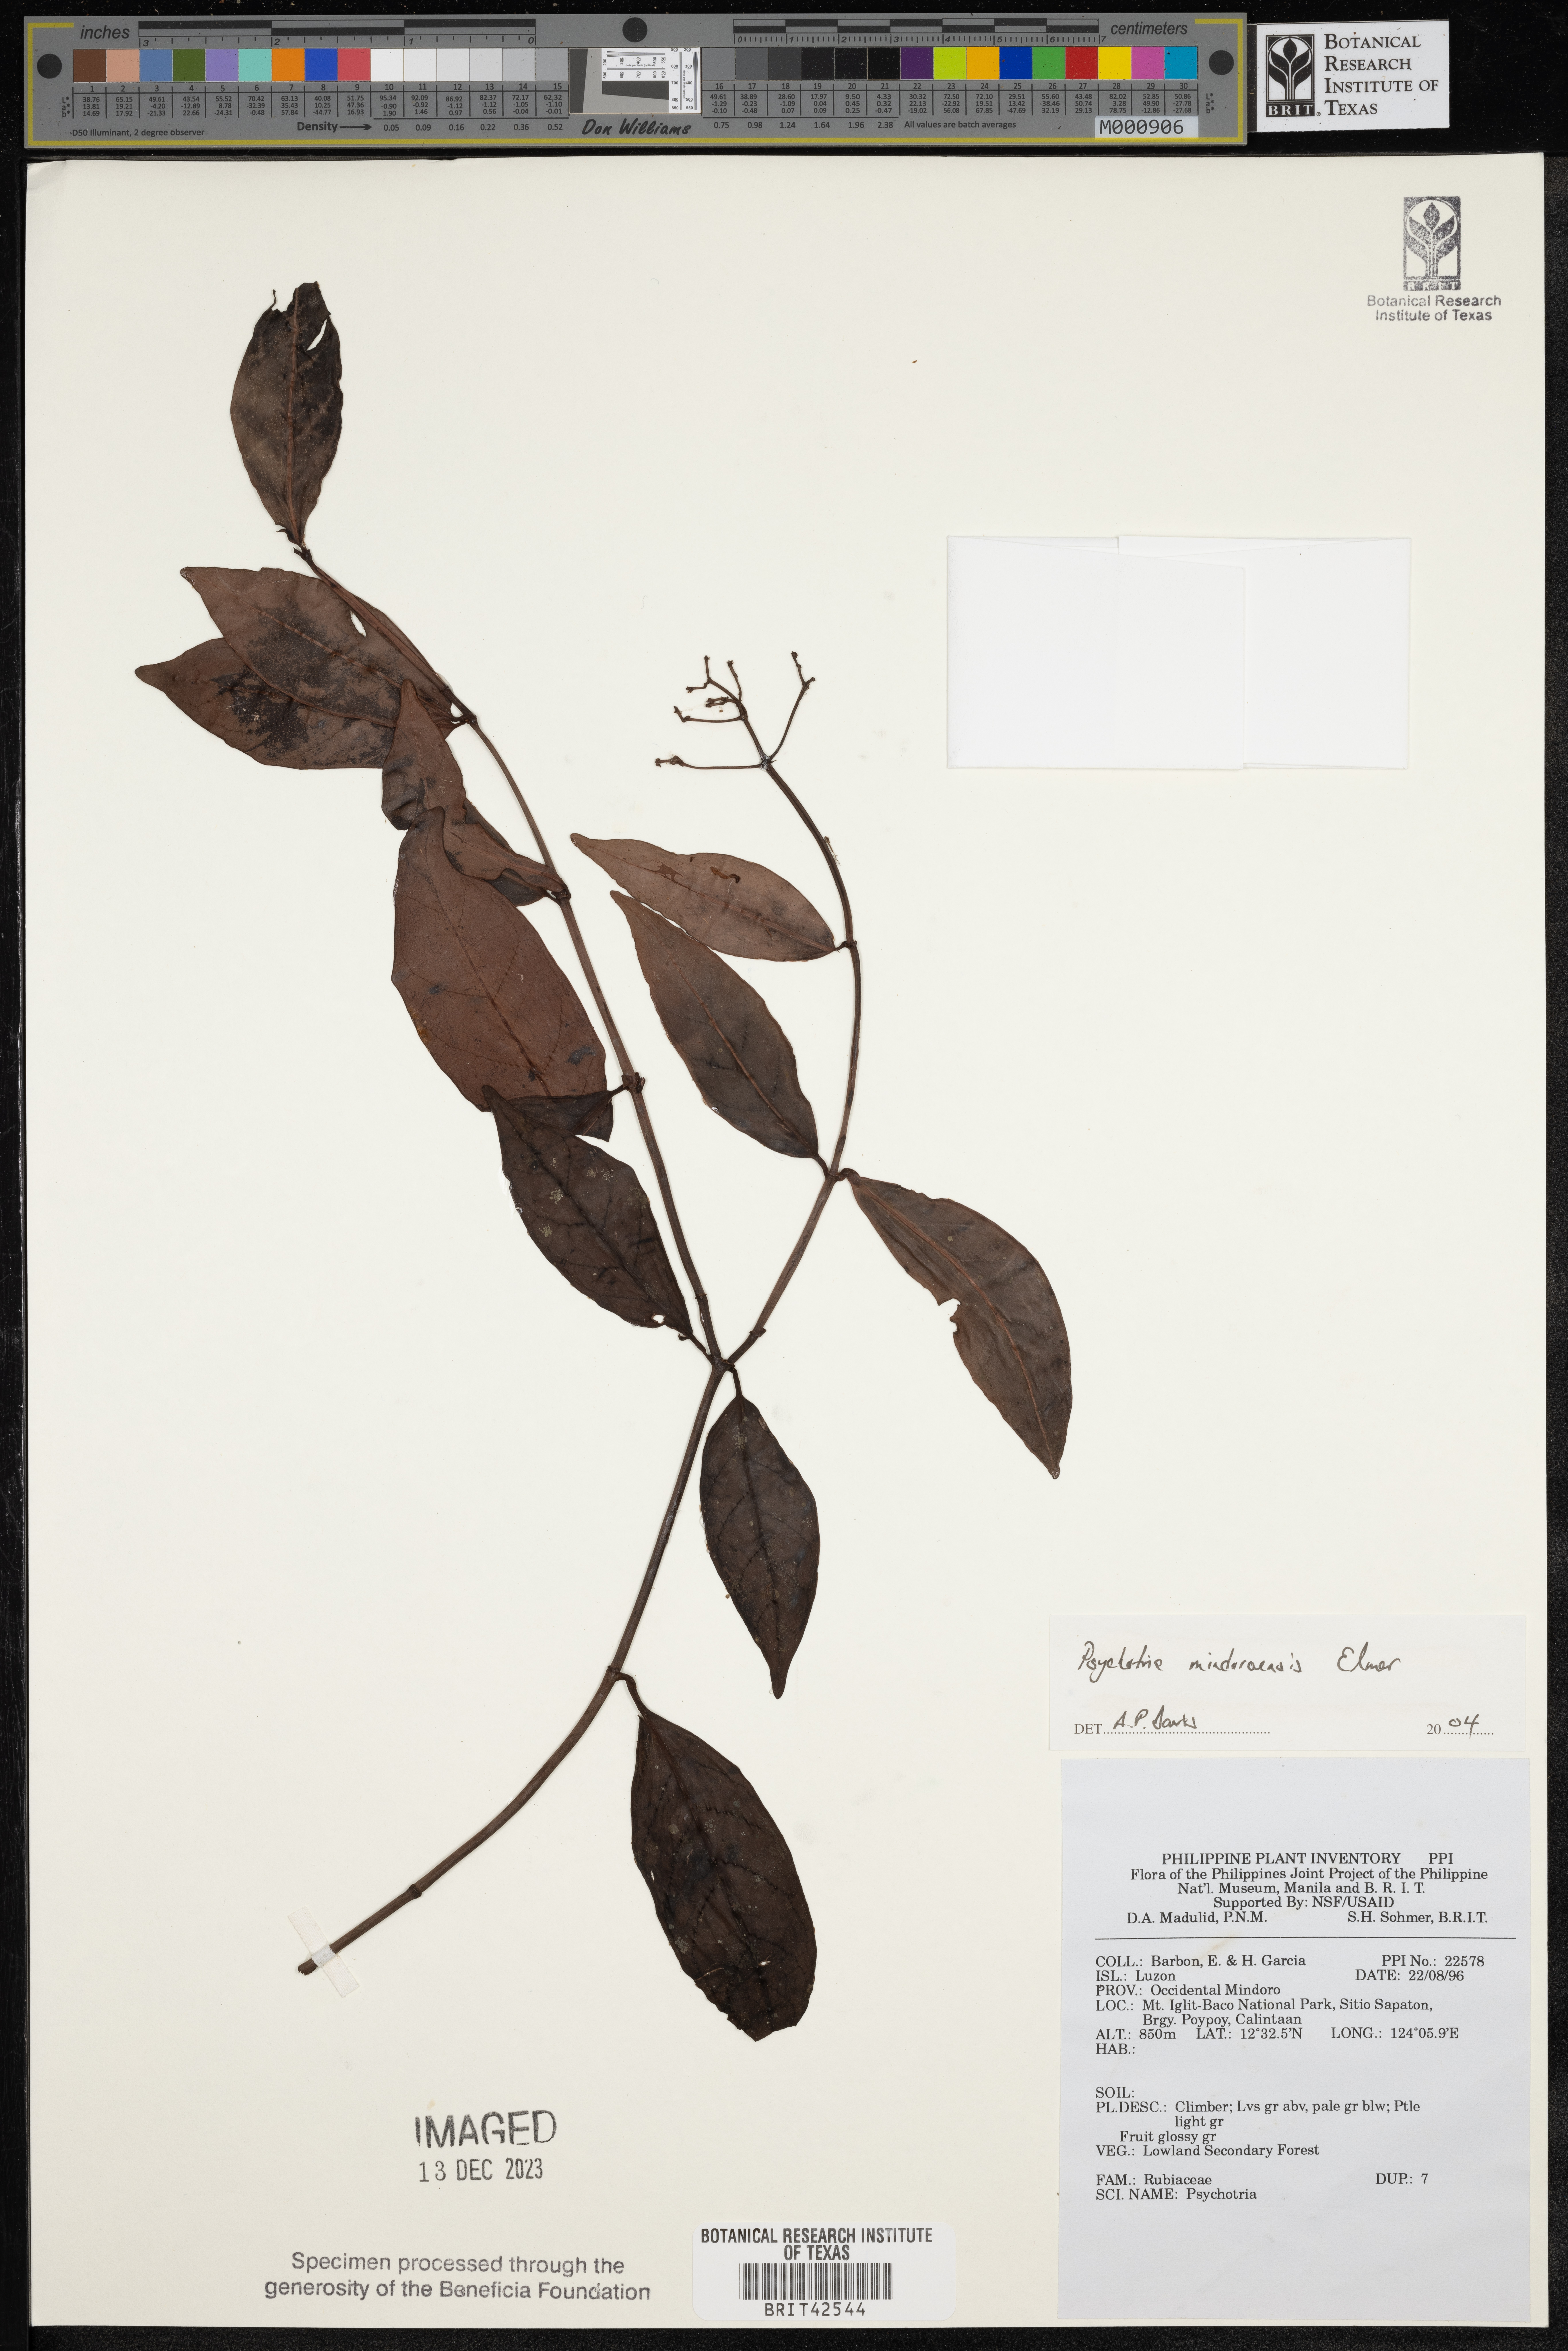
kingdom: Plantae
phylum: Tracheophyta
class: Magnoliopsida
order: Gentianales
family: Rubiaceae
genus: Psychotria
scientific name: Psychotria mindoroensis
